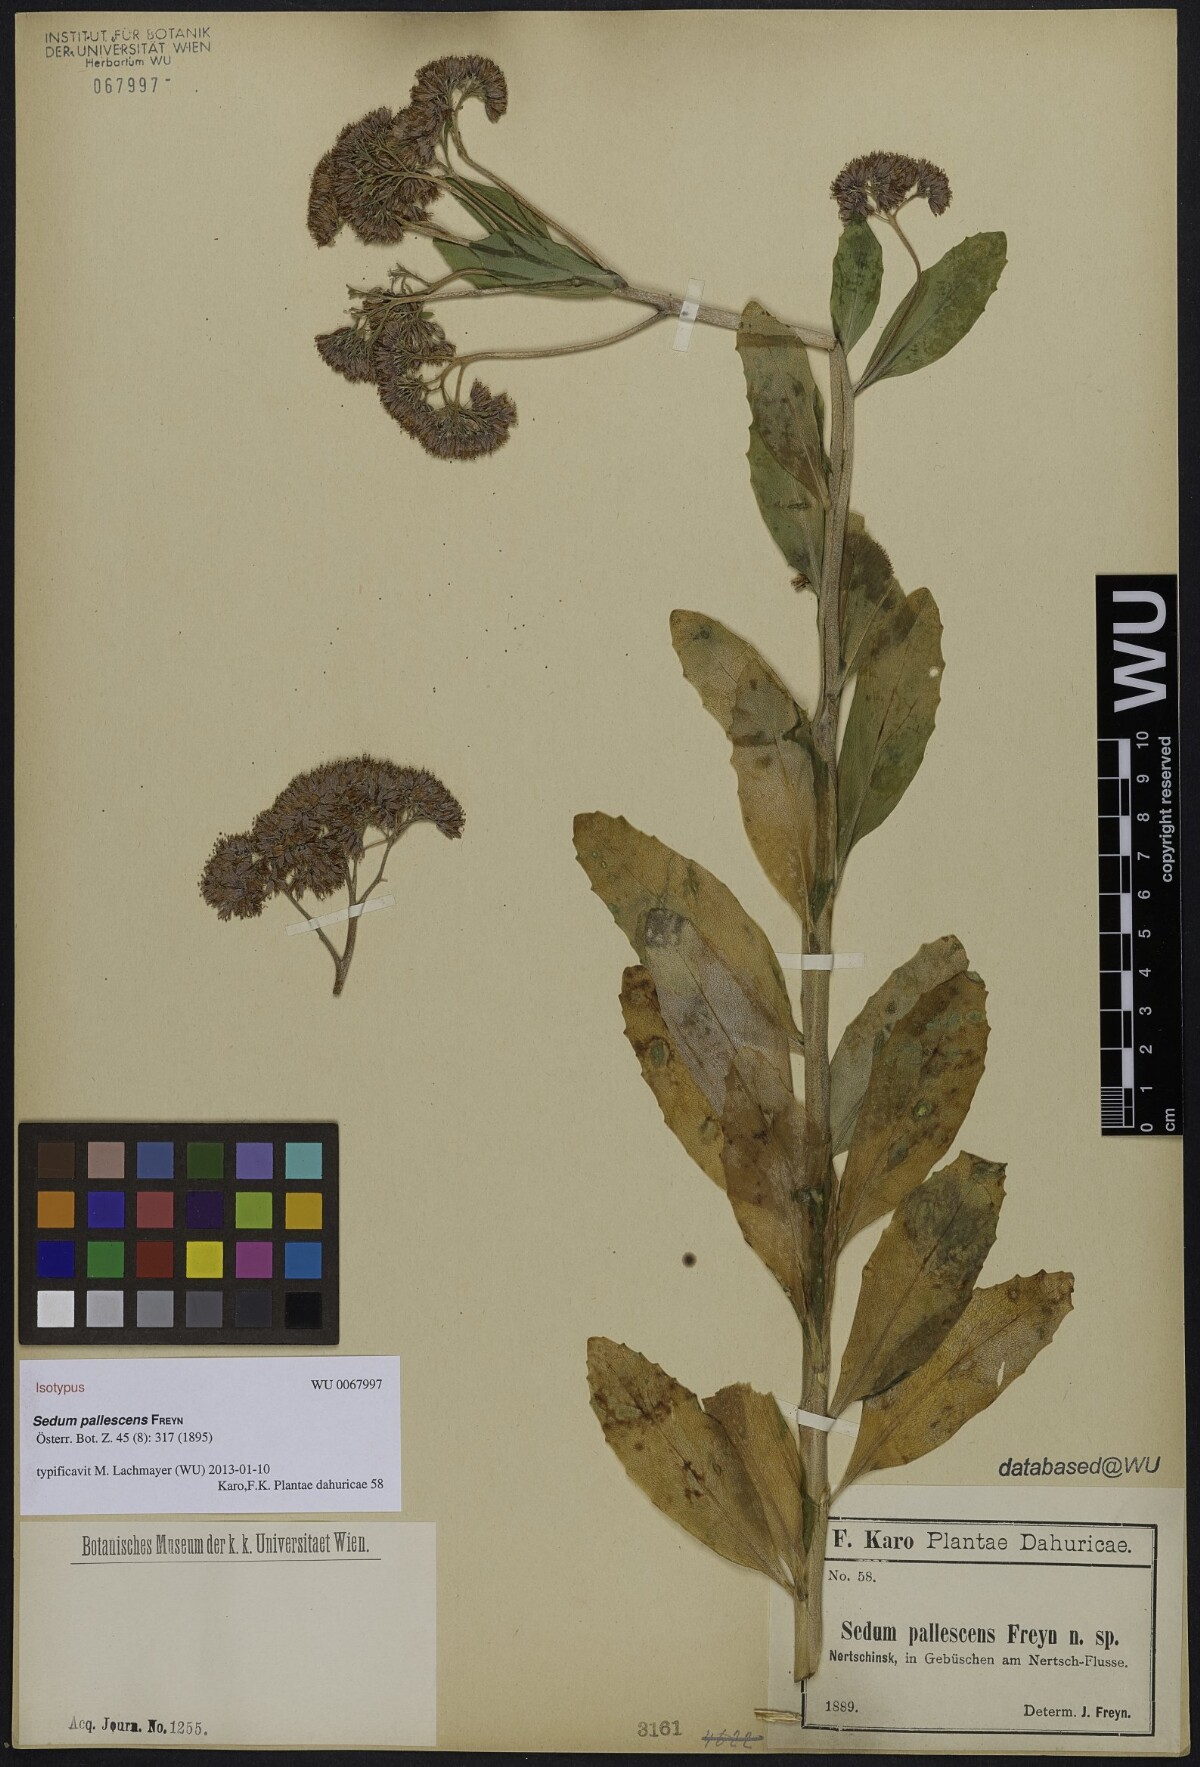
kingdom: Plantae
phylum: Tracheophyta
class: Magnoliopsida
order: Saxifragales
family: Crassulaceae
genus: Hylotelephium
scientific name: Hylotelephium pallescens
